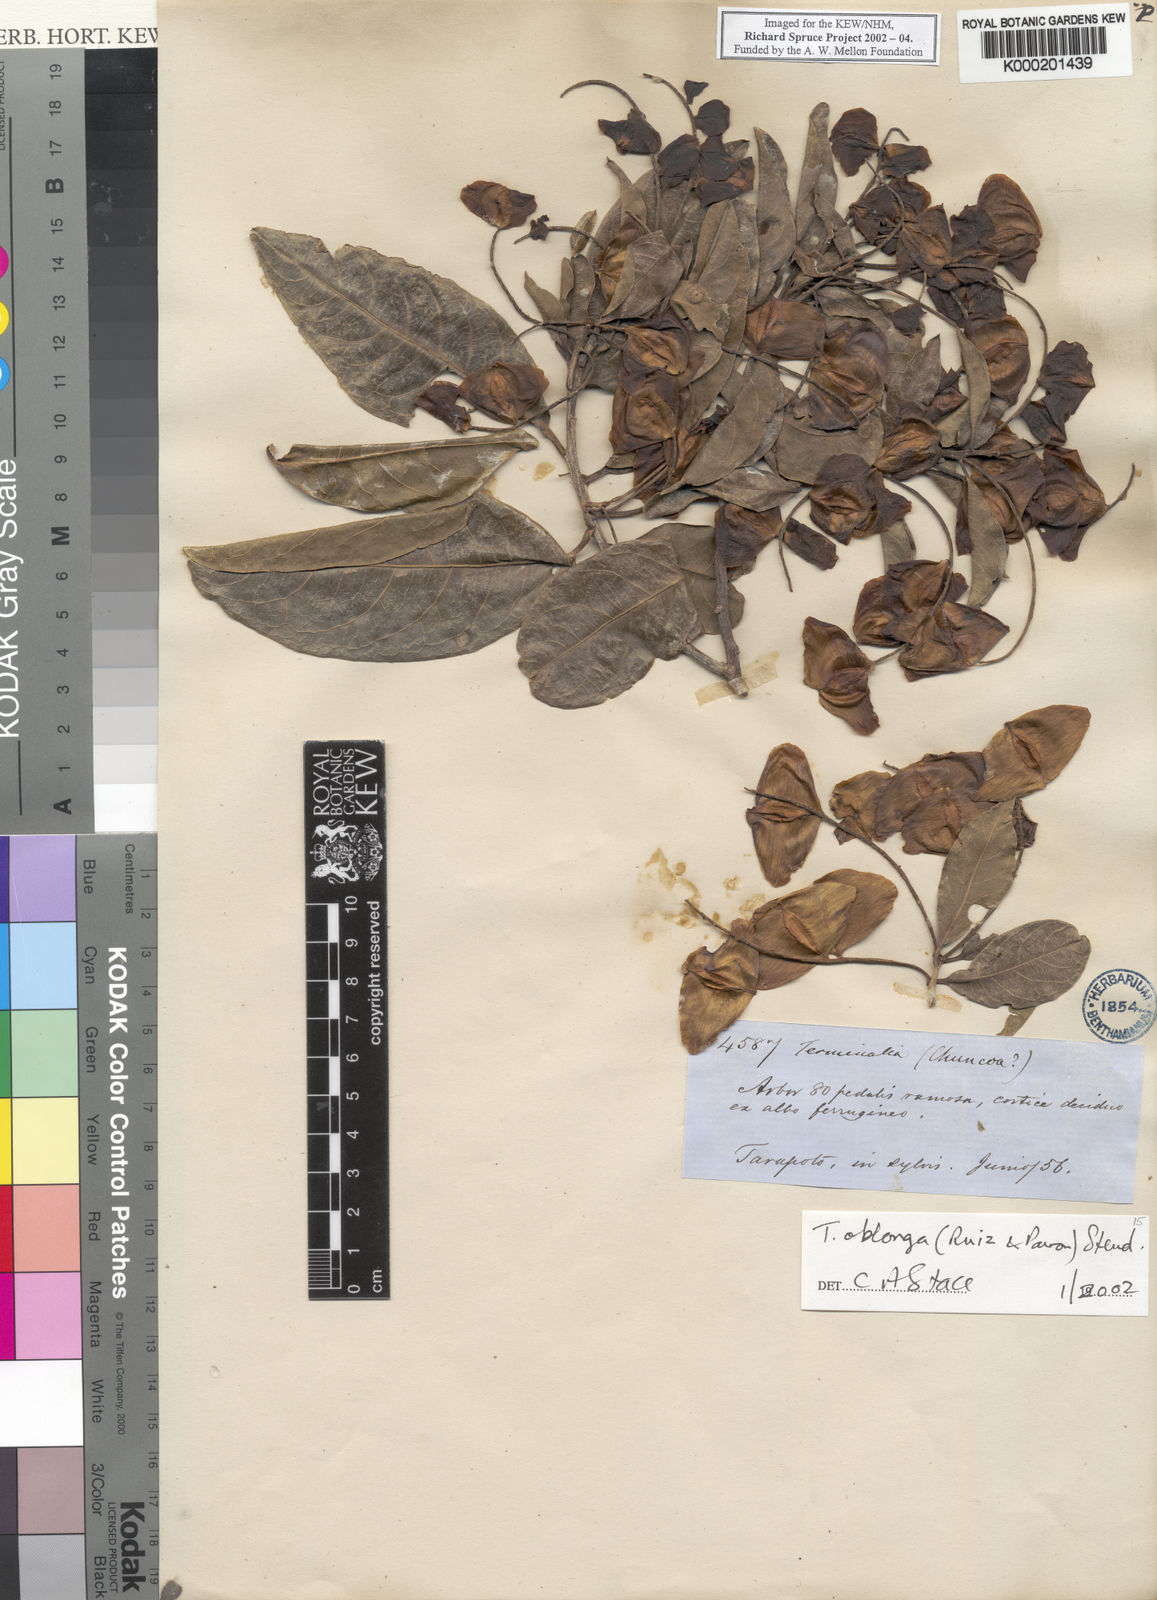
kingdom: Plantae
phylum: Tracheophyta
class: Magnoliopsida
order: Myrtales
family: Combretaceae
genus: Terminalia
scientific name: Terminalia oblonga
